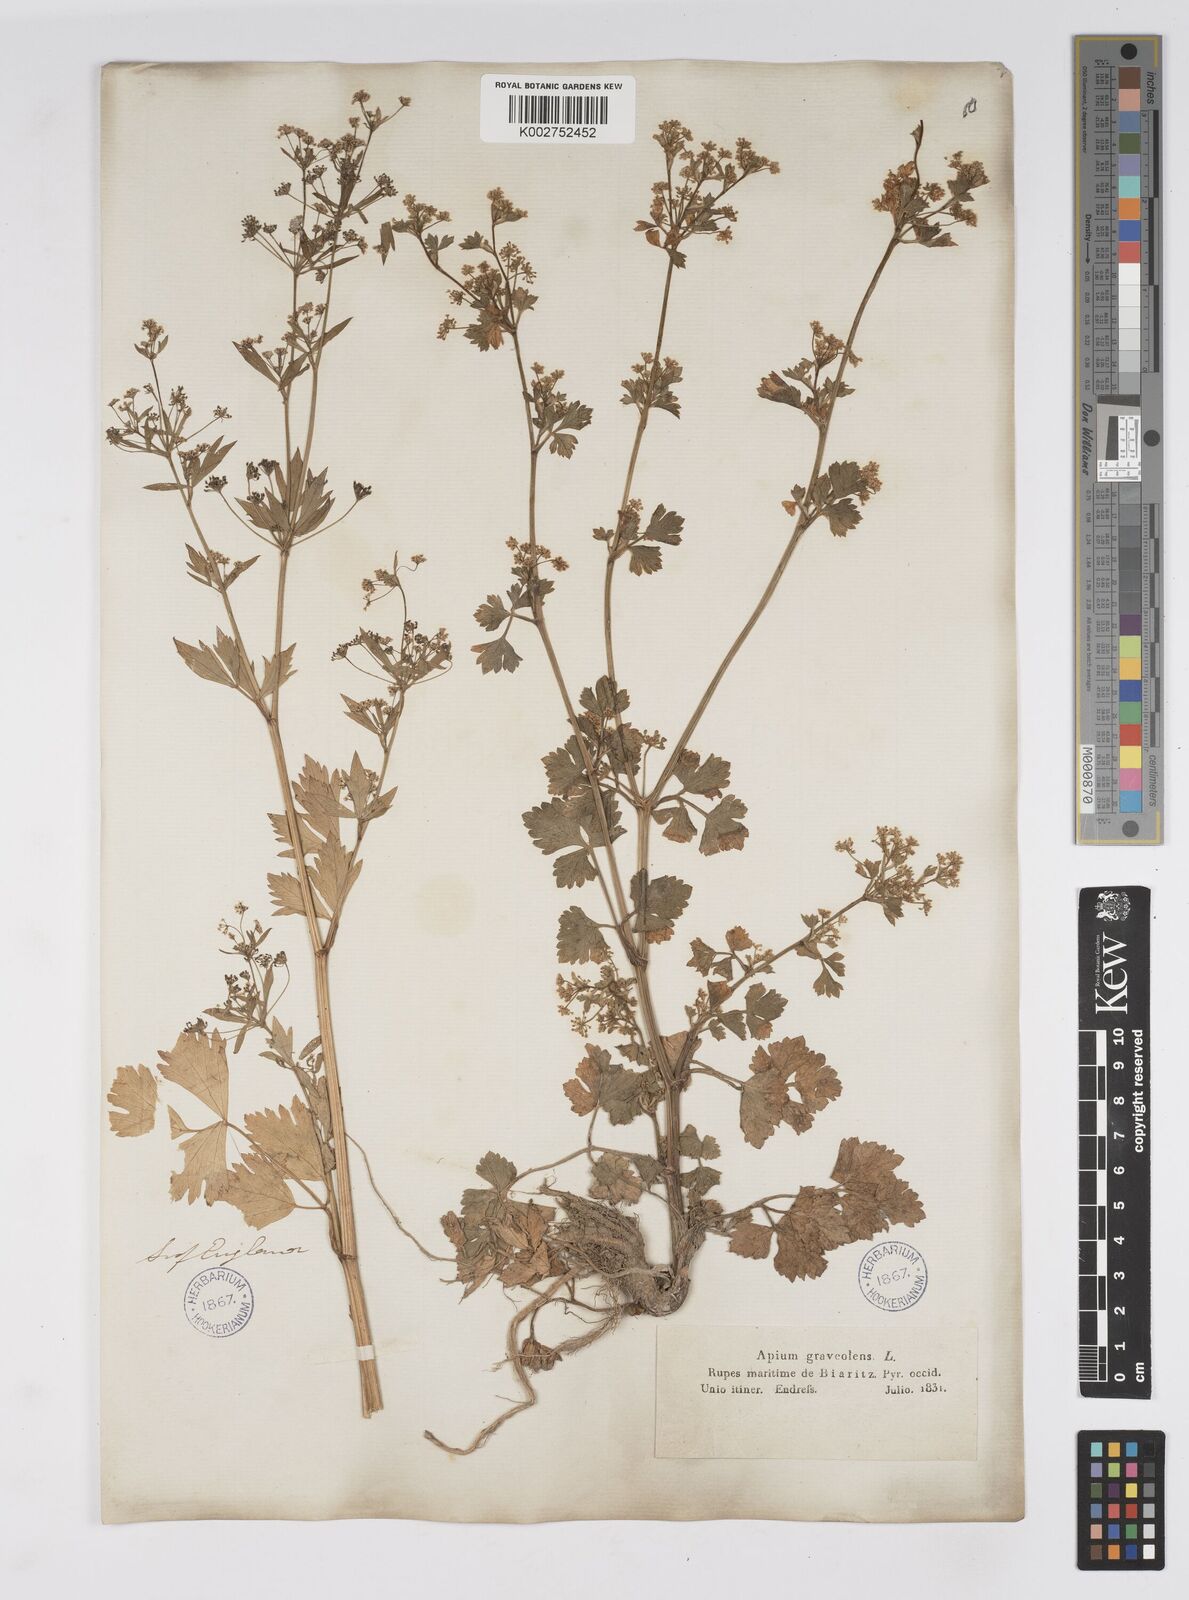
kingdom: Plantae
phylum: Tracheophyta
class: Magnoliopsida
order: Apiales
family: Apiaceae
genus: Apium
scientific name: Apium graveolens
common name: Wild celery
